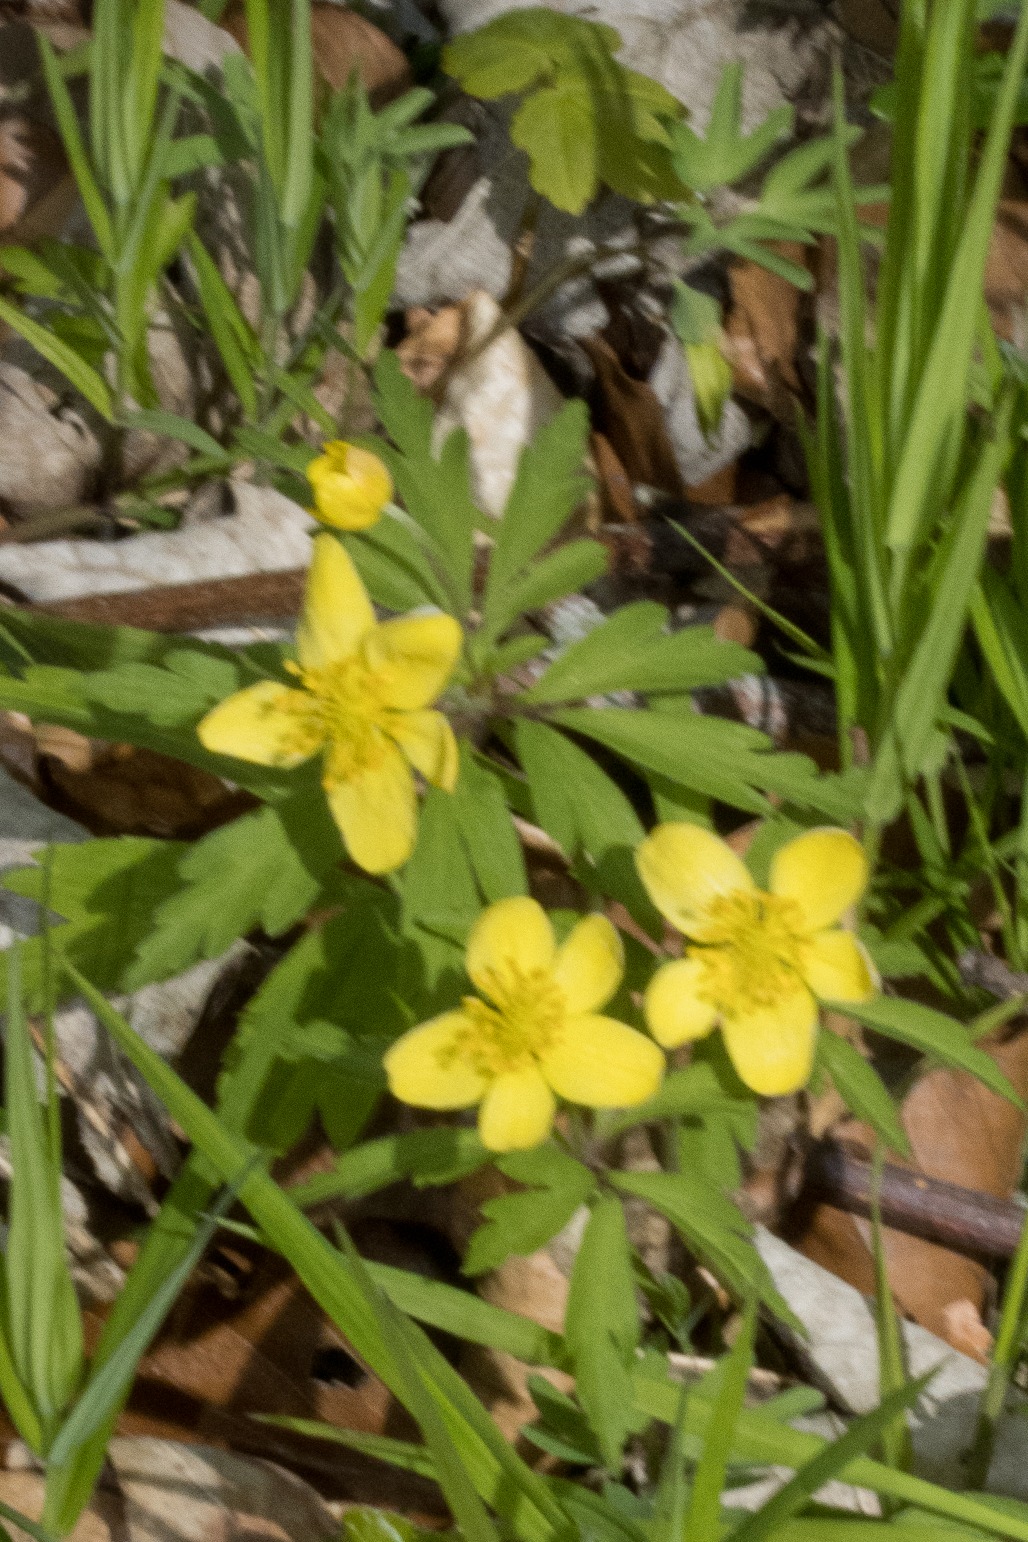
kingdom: Plantae
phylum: Tracheophyta
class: Magnoliopsida
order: Ranunculales
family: Ranunculaceae
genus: Anemone
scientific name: Anemone ranunculoides
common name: Gul anemone
